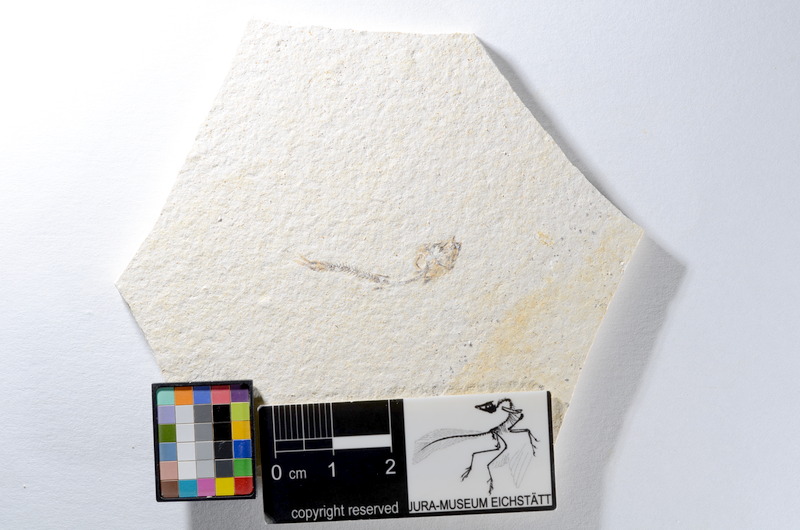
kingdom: Animalia
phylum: Chordata
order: Salmoniformes
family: Orthogonikleithridae
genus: Orthogonikleithrus
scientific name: Orthogonikleithrus hoelli
